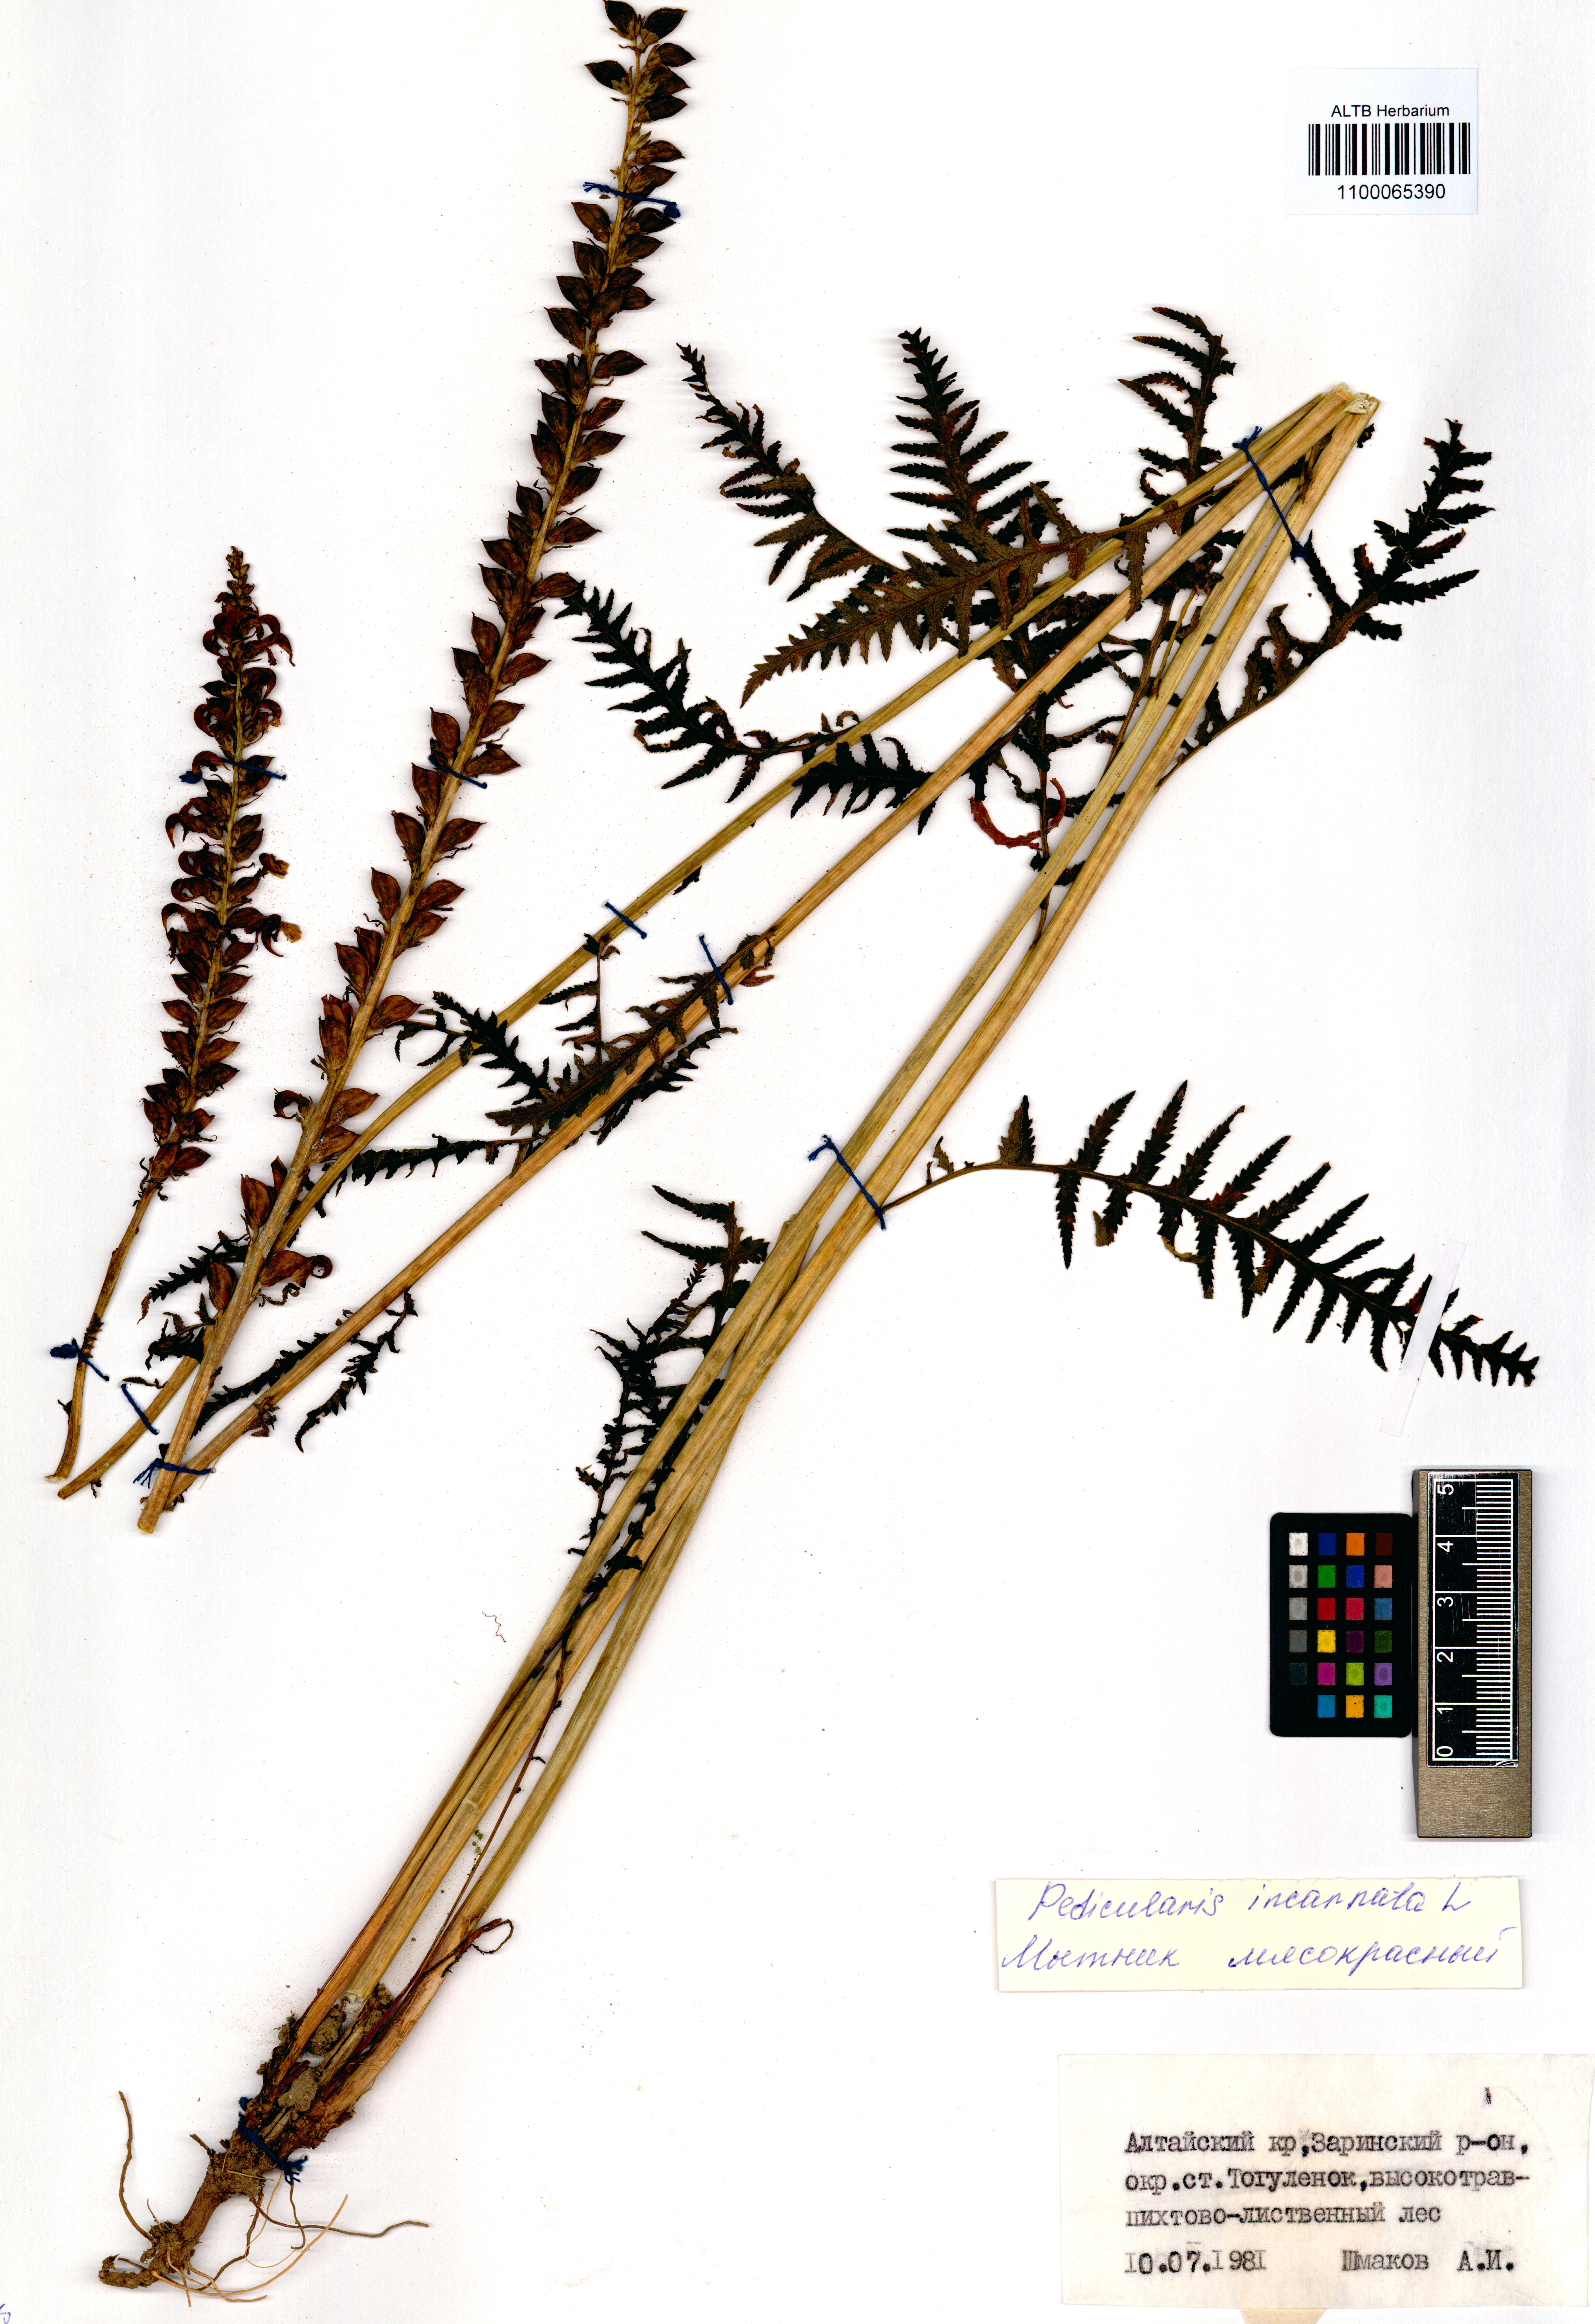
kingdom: Plantae
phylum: Tracheophyta
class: Magnoliopsida
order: Lamiales
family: Orobanchaceae
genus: Pedicularis
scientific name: Pedicularis incarnata
